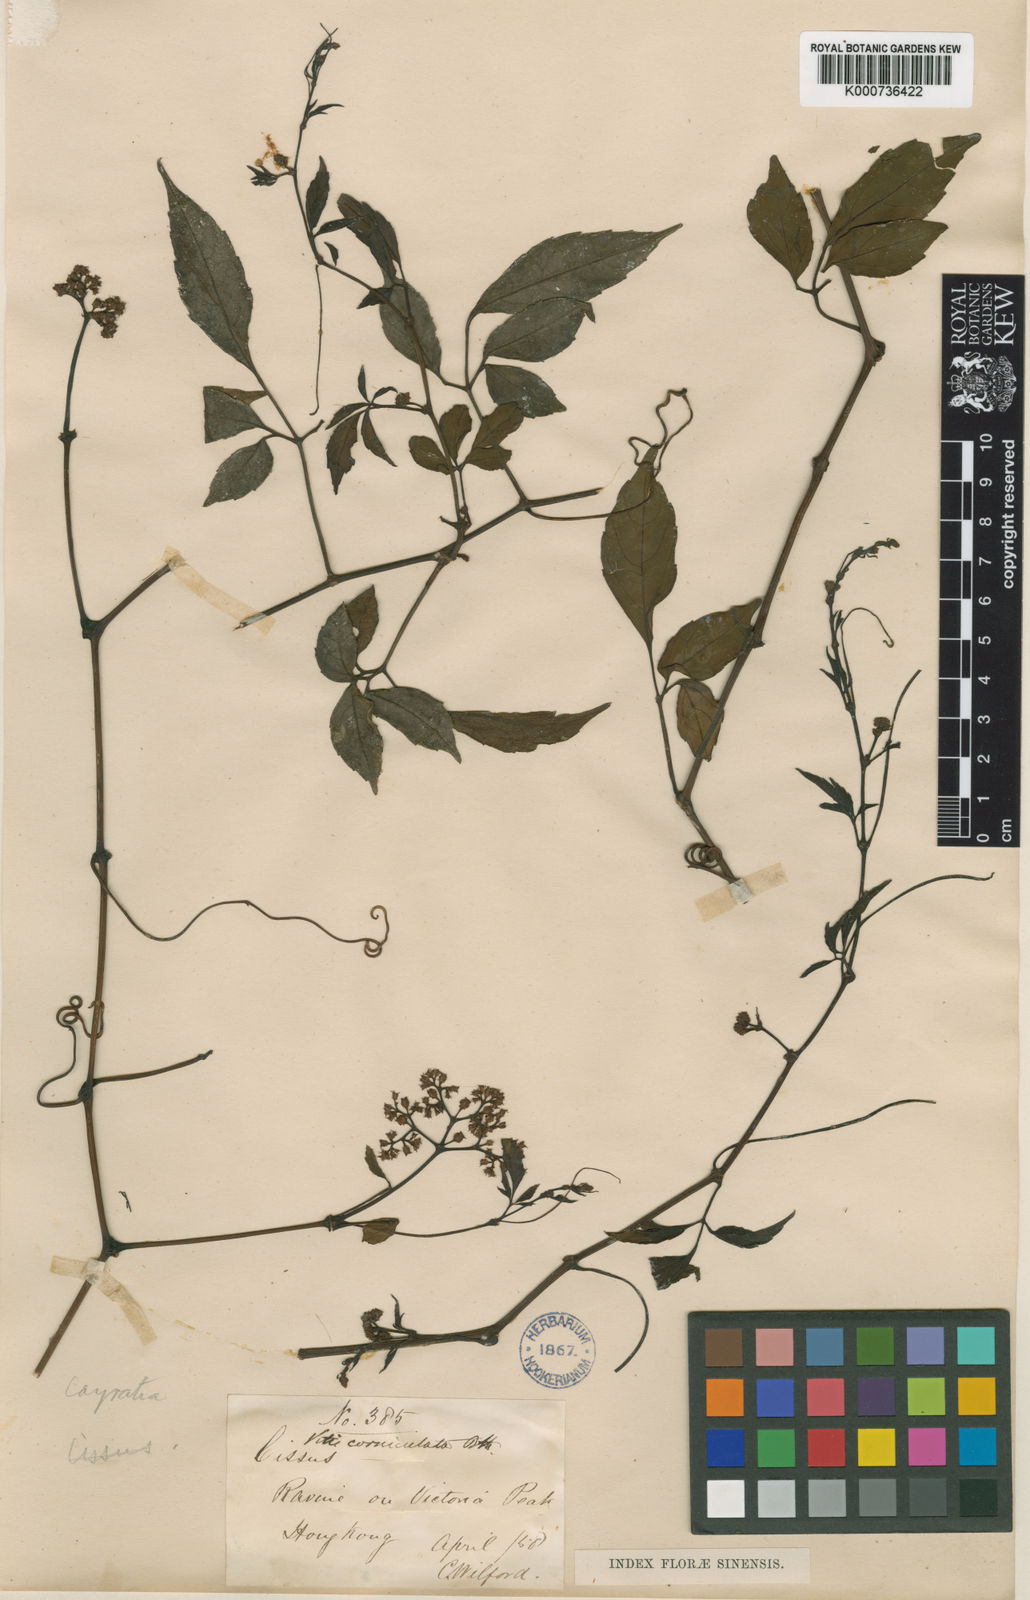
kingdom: Plantae
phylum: Tracheophyta
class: Magnoliopsida
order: Vitales
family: Vitaceae
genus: Causonis
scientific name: Causonis corniculata
